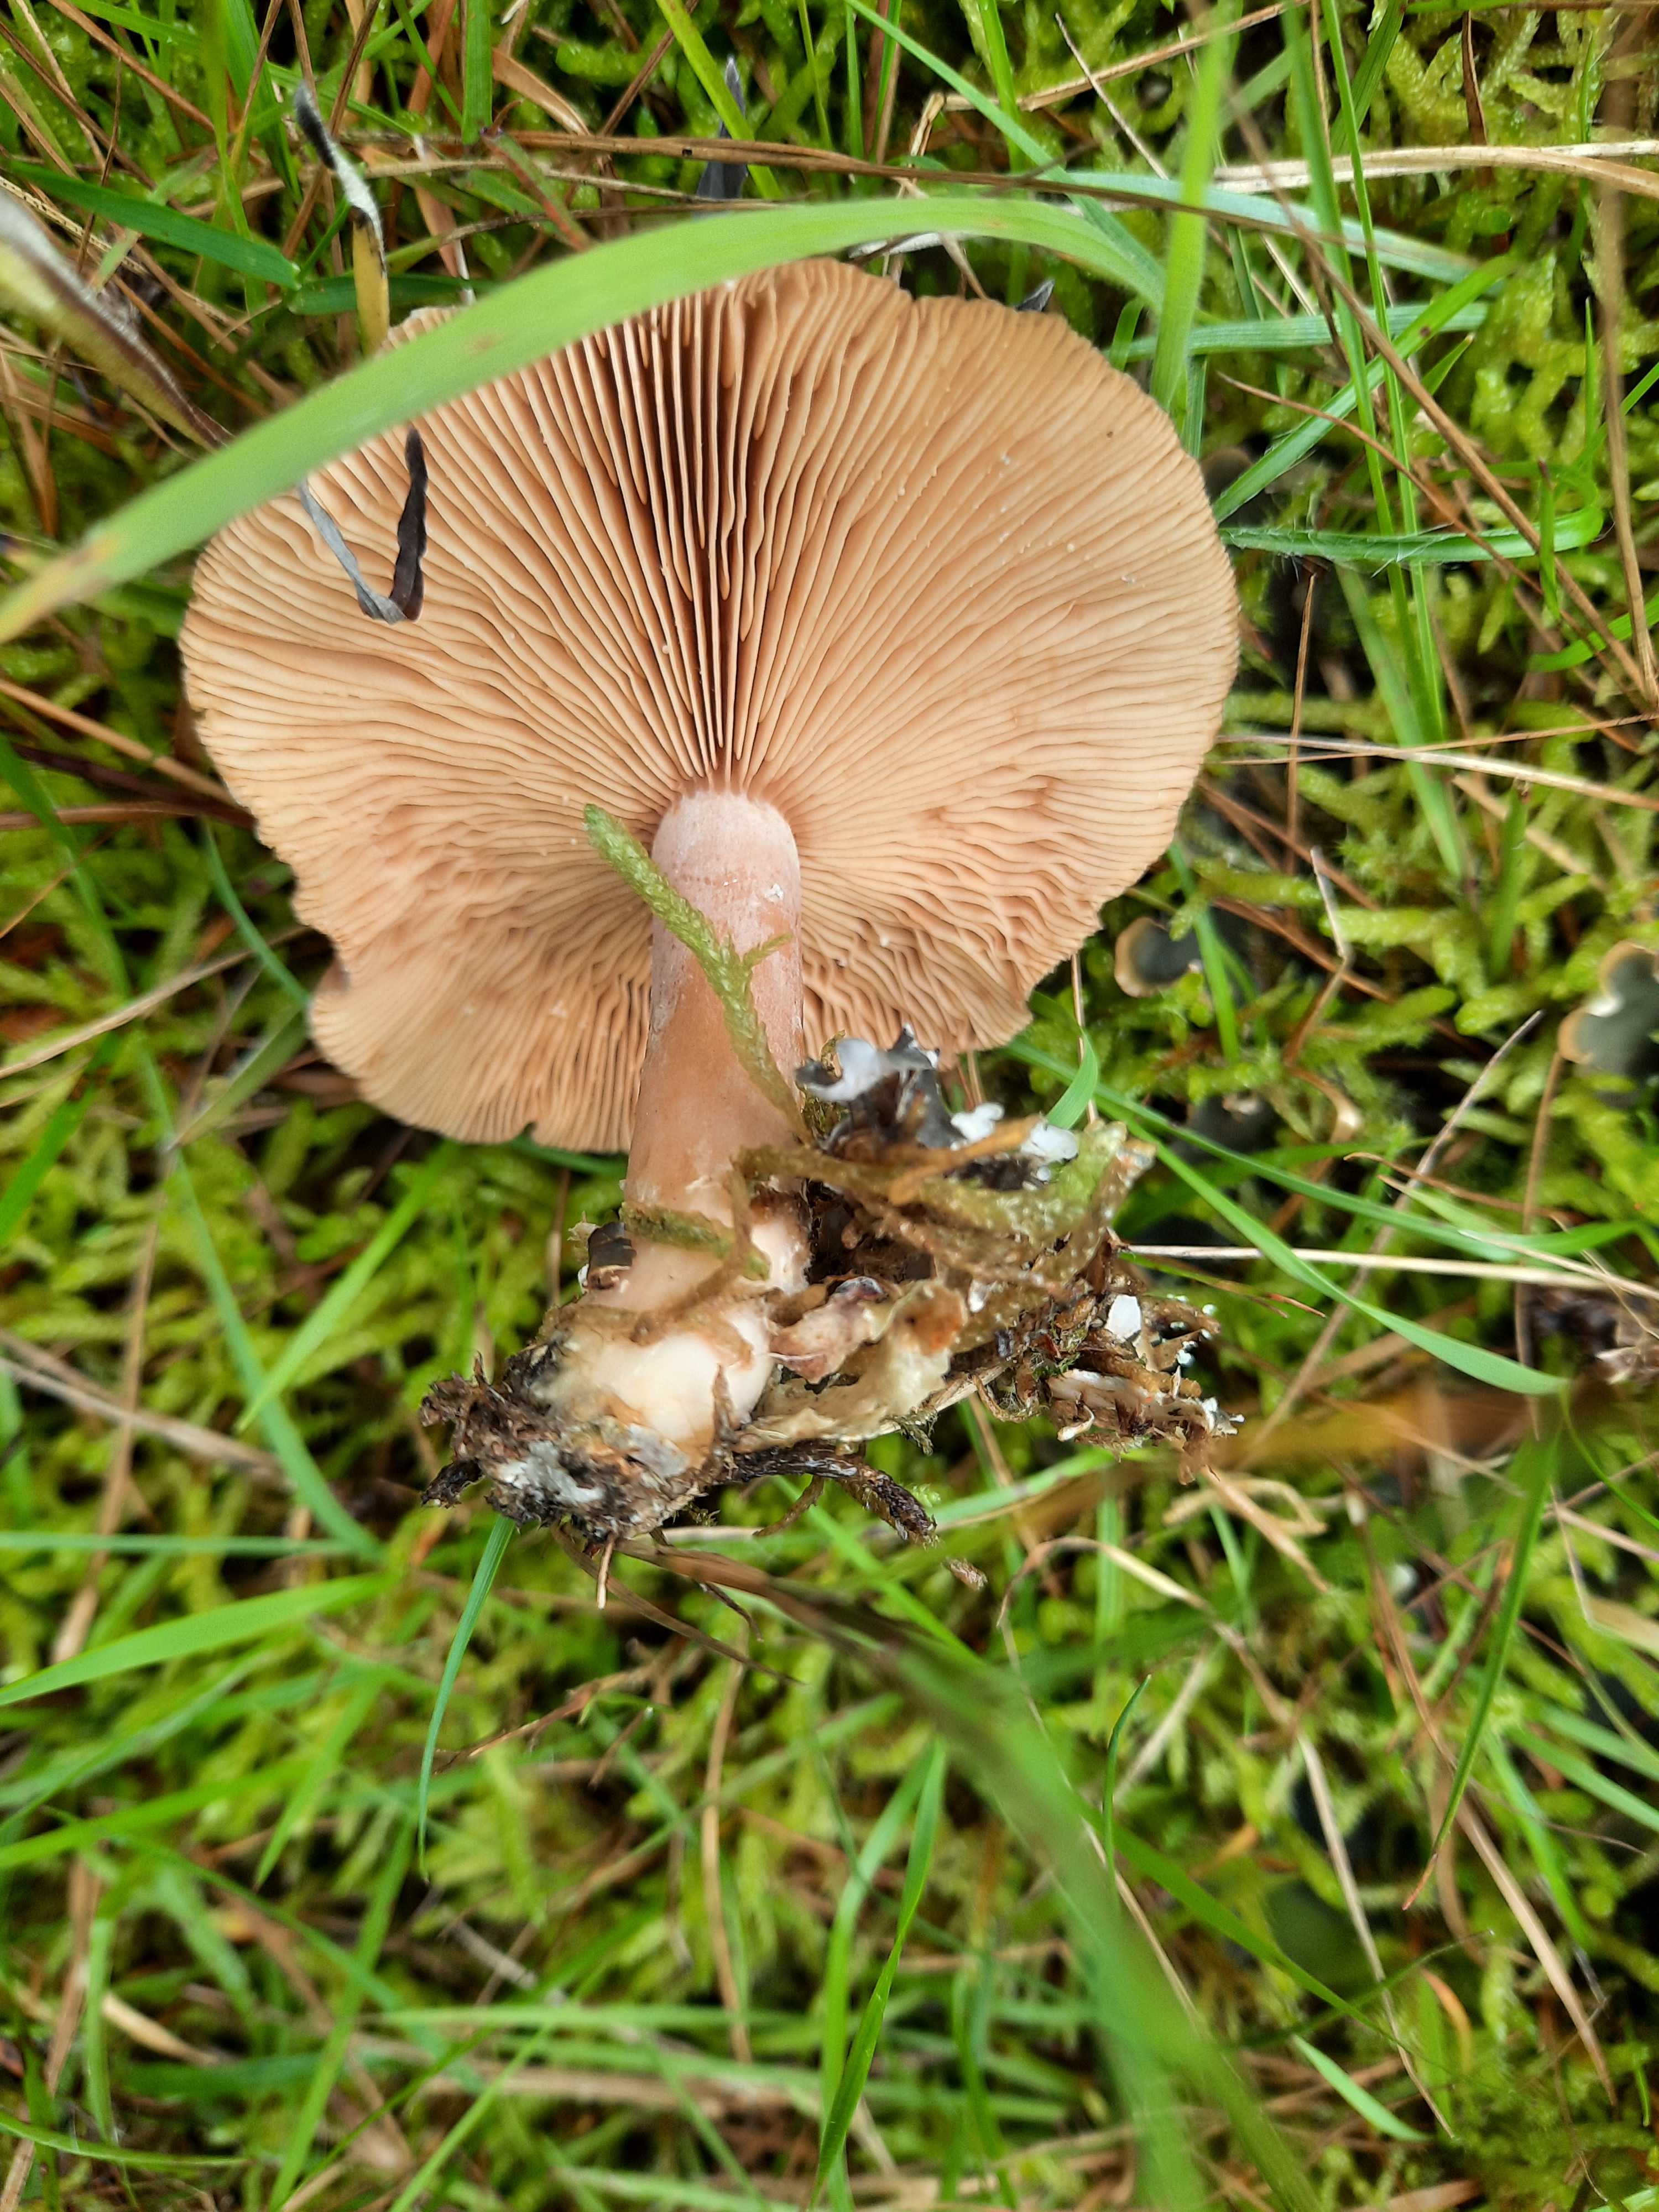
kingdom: Fungi
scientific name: Fungi
